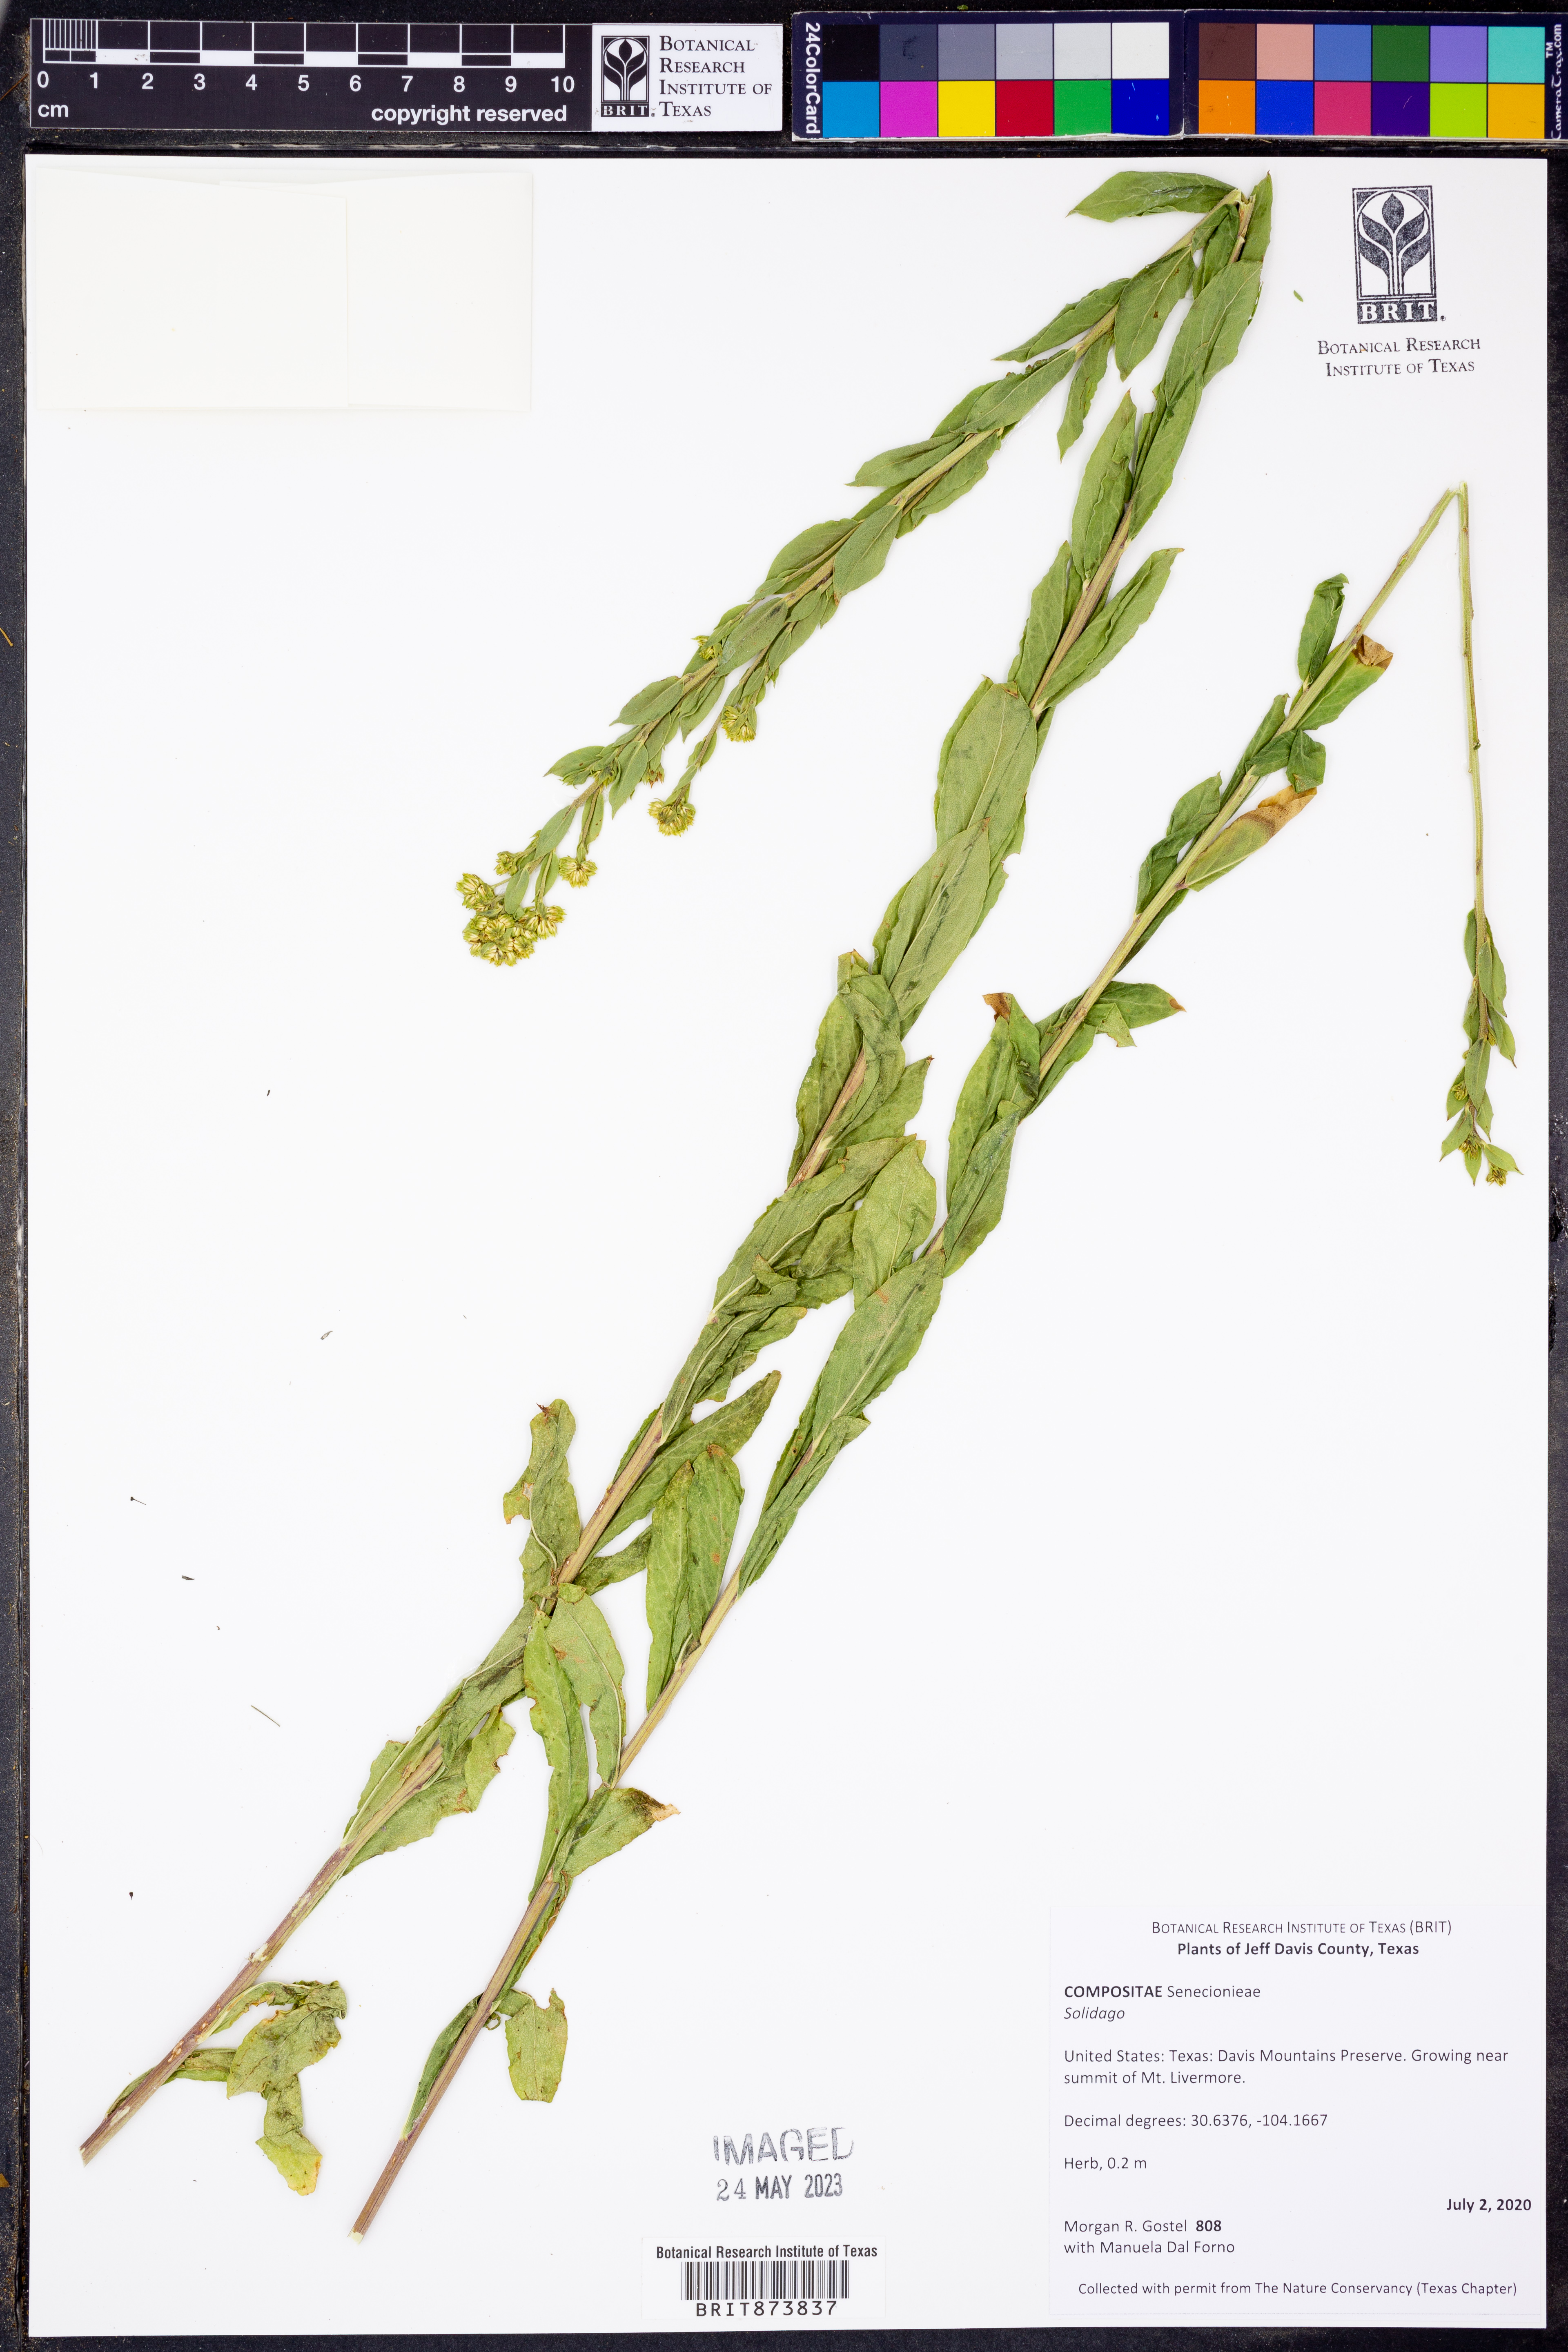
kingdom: Plantae
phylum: Tracheophyta
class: Magnoliopsida
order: Asterales
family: Asteraceae
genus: Solidago
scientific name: Solidago
